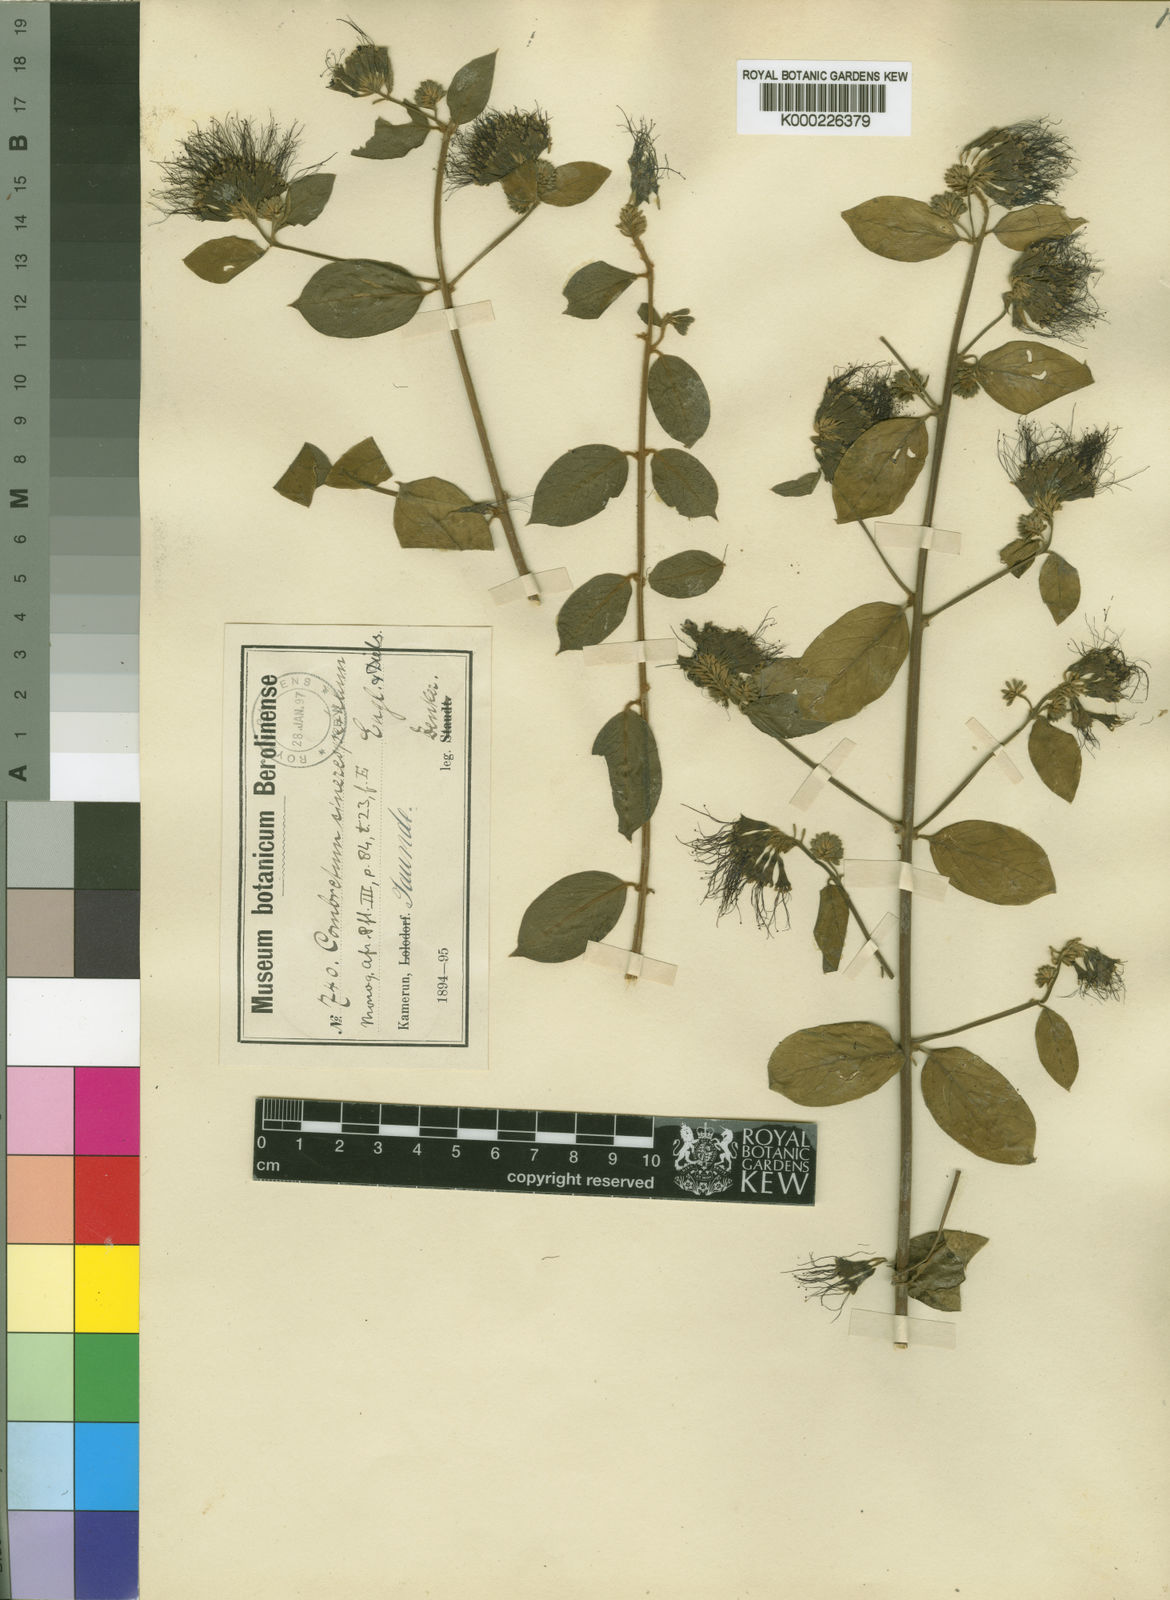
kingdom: Plantae
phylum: Tracheophyta
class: Magnoliopsida
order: Myrtales
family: Combretaceae
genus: Combretum
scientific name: Combretum cinereopetalum
